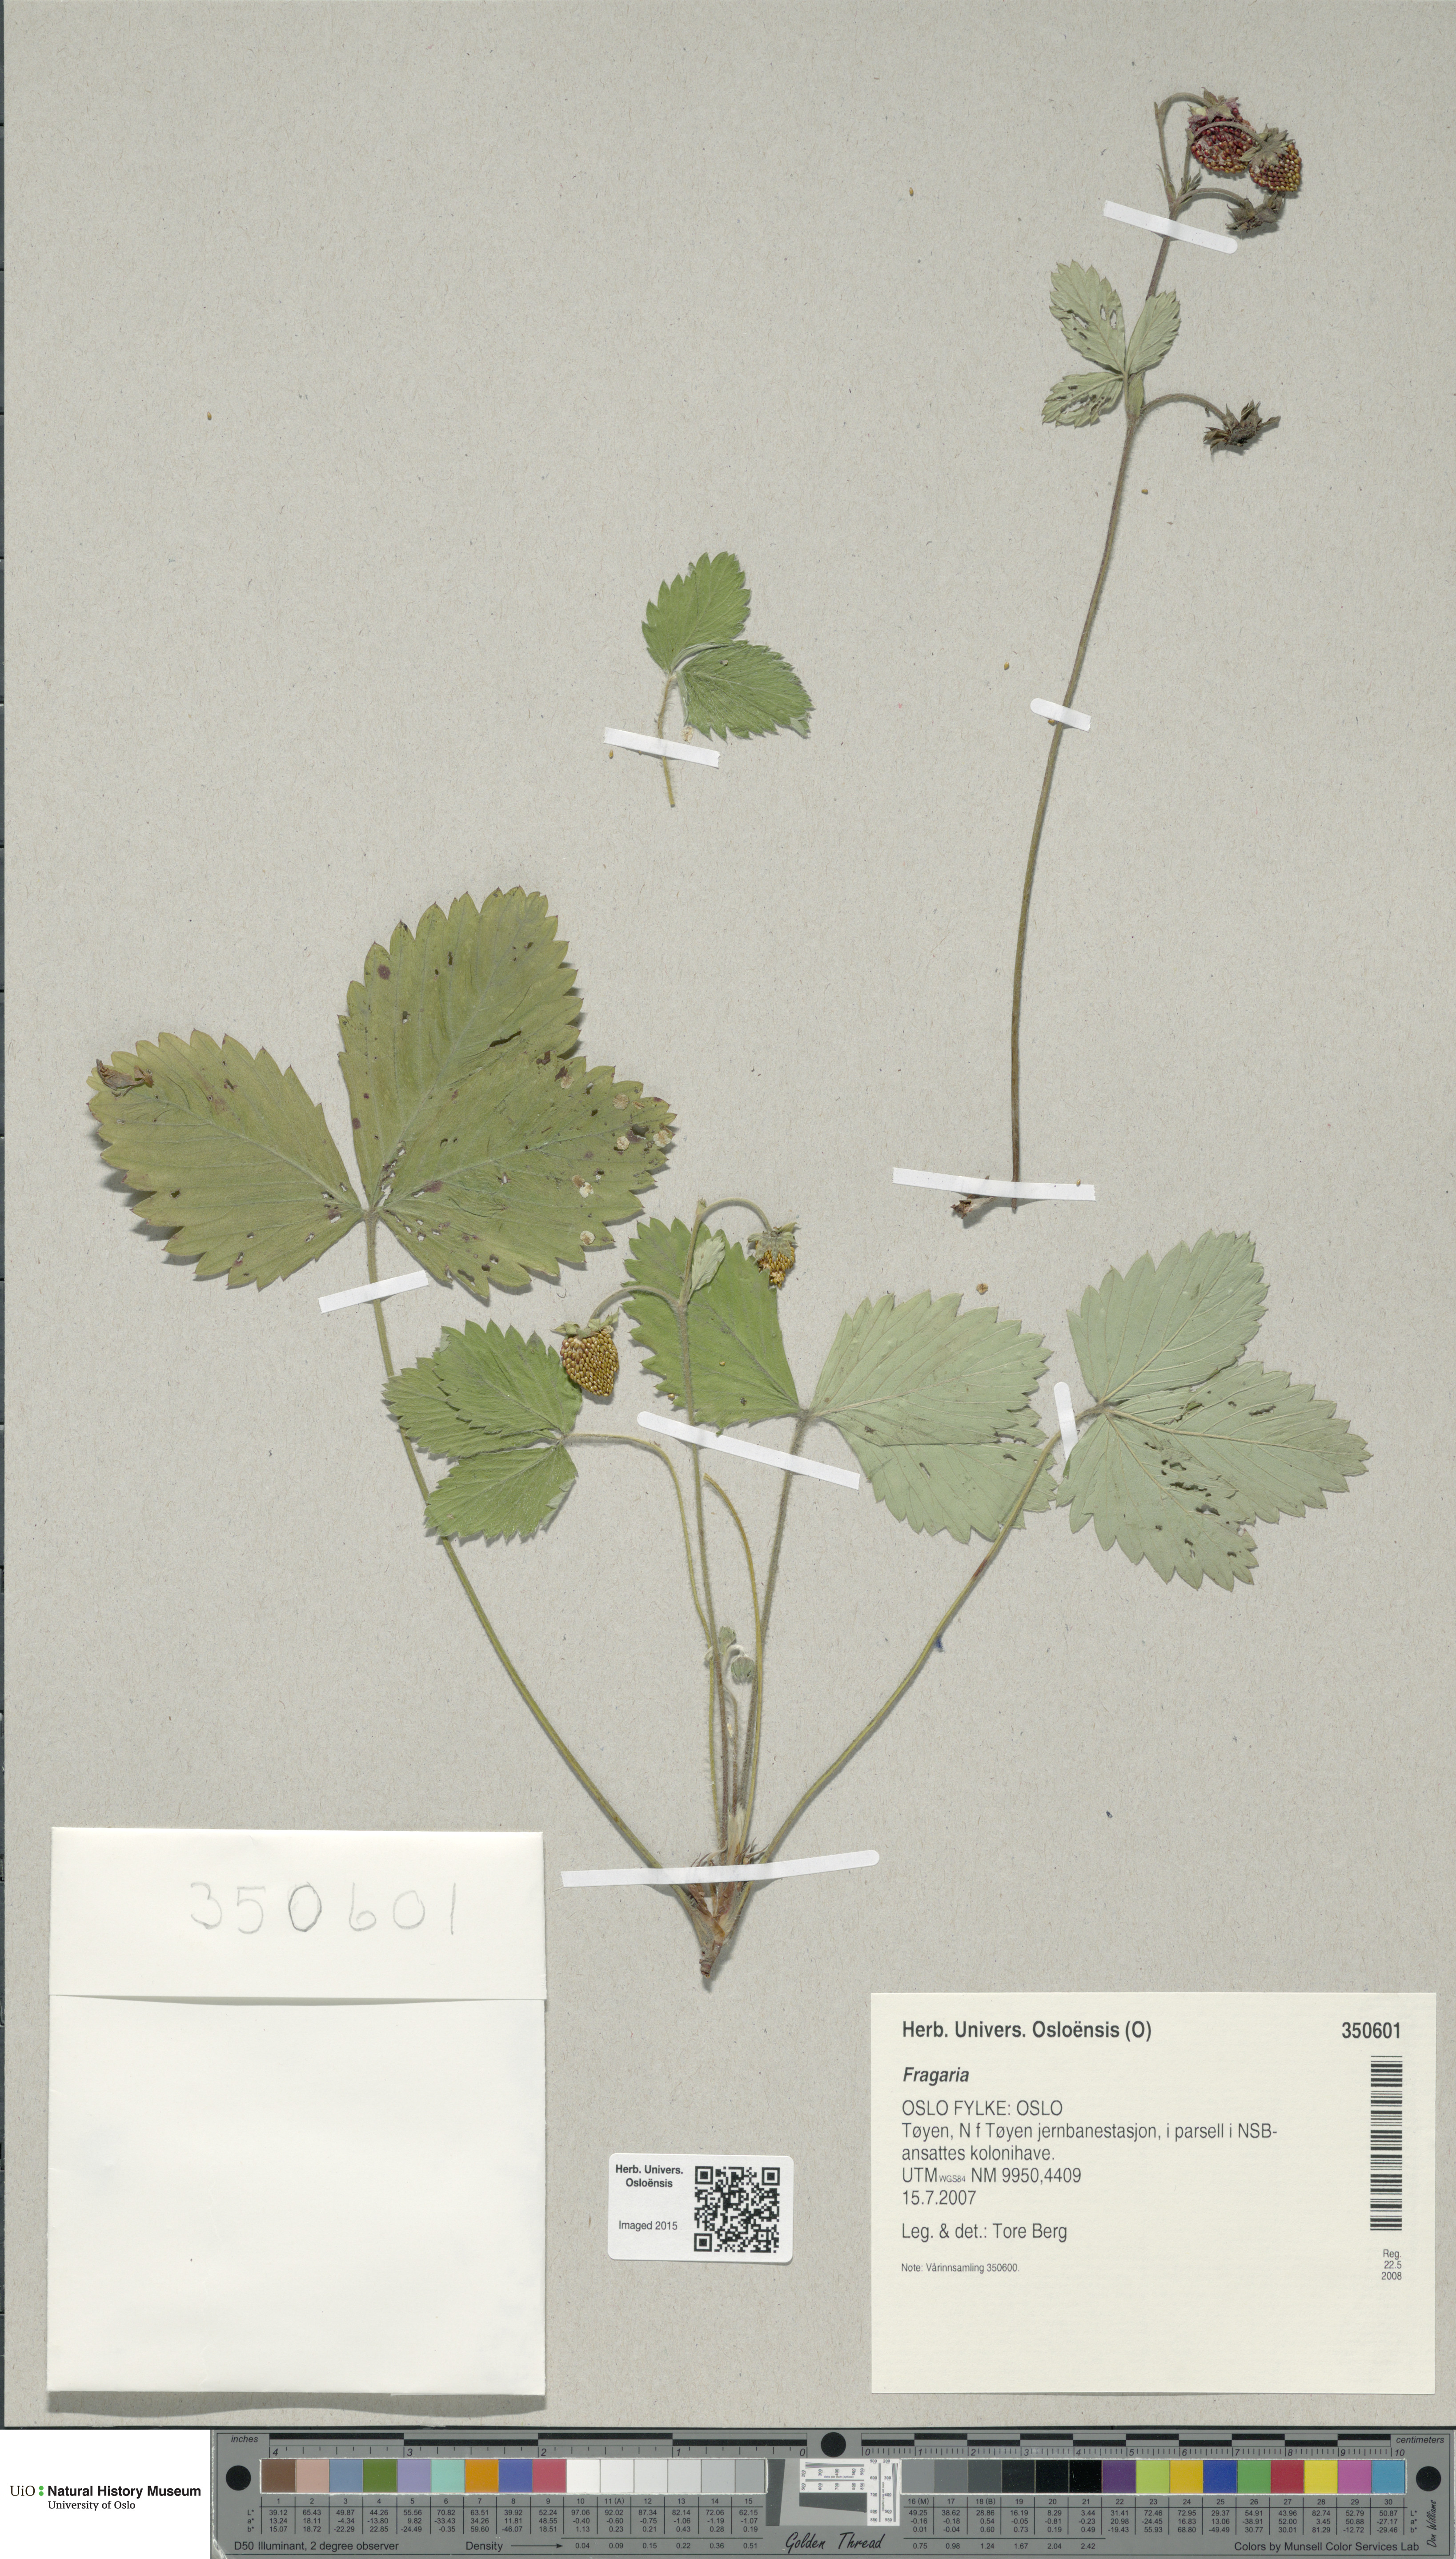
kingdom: Plantae
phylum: Tracheophyta
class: Magnoliopsida
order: Rosales
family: Rosaceae
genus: Fragaria
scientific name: Fragaria
